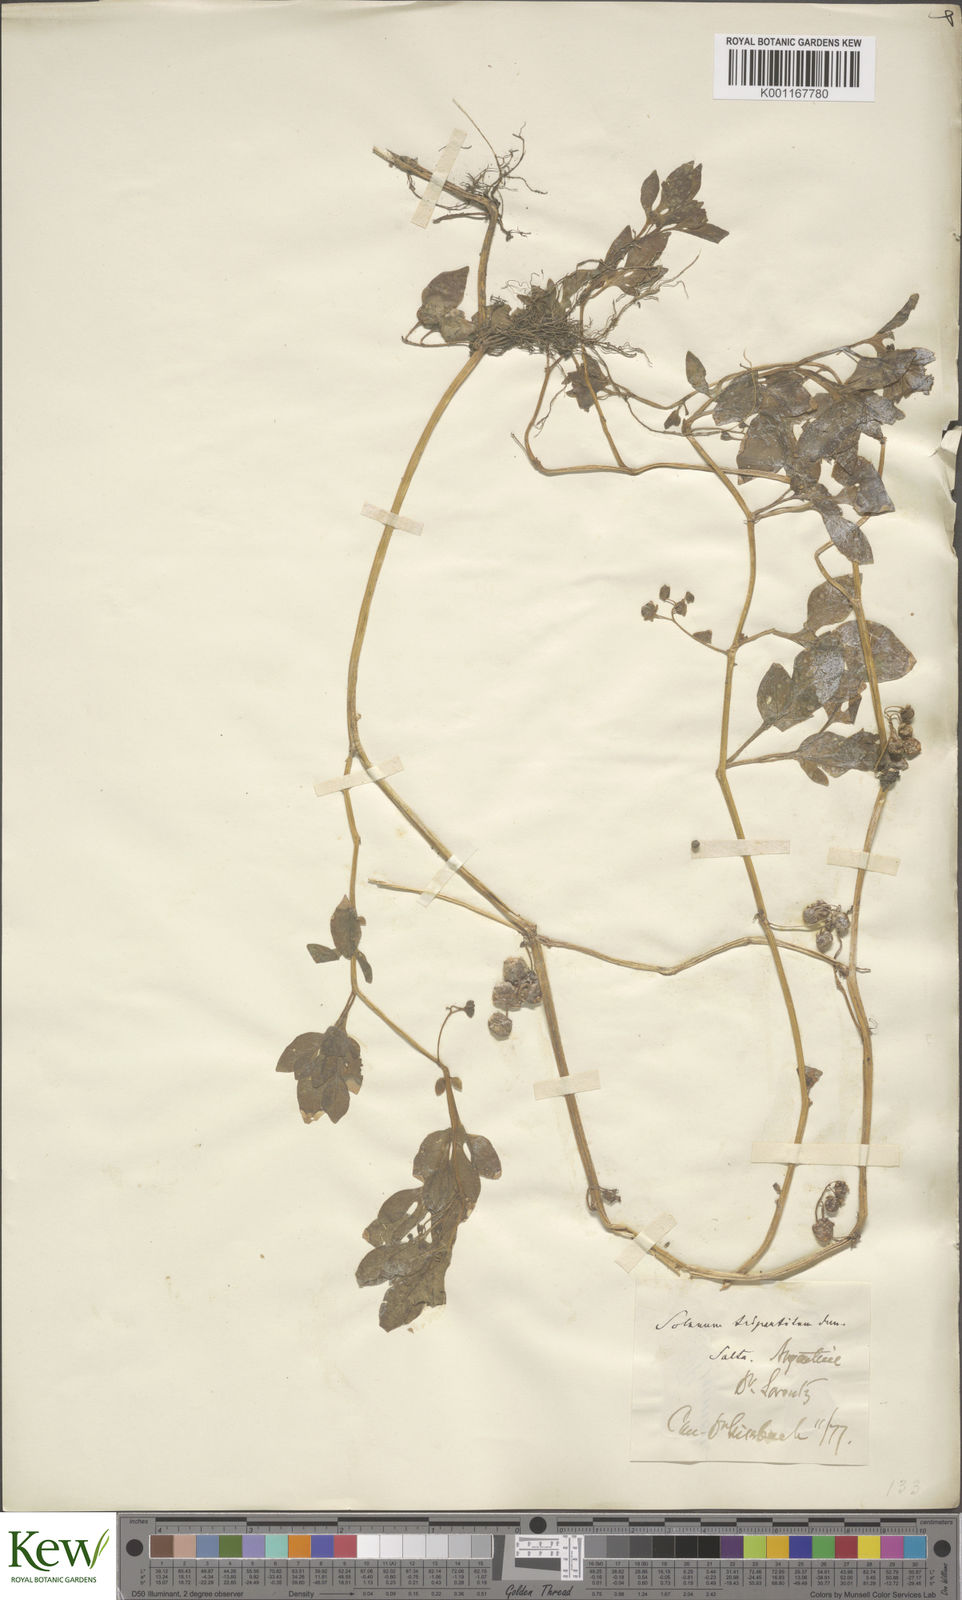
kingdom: Plantae
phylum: Tracheophyta
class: Magnoliopsida
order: Solanales
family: Solanaceae
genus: Solanum
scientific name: Solanum palitans
